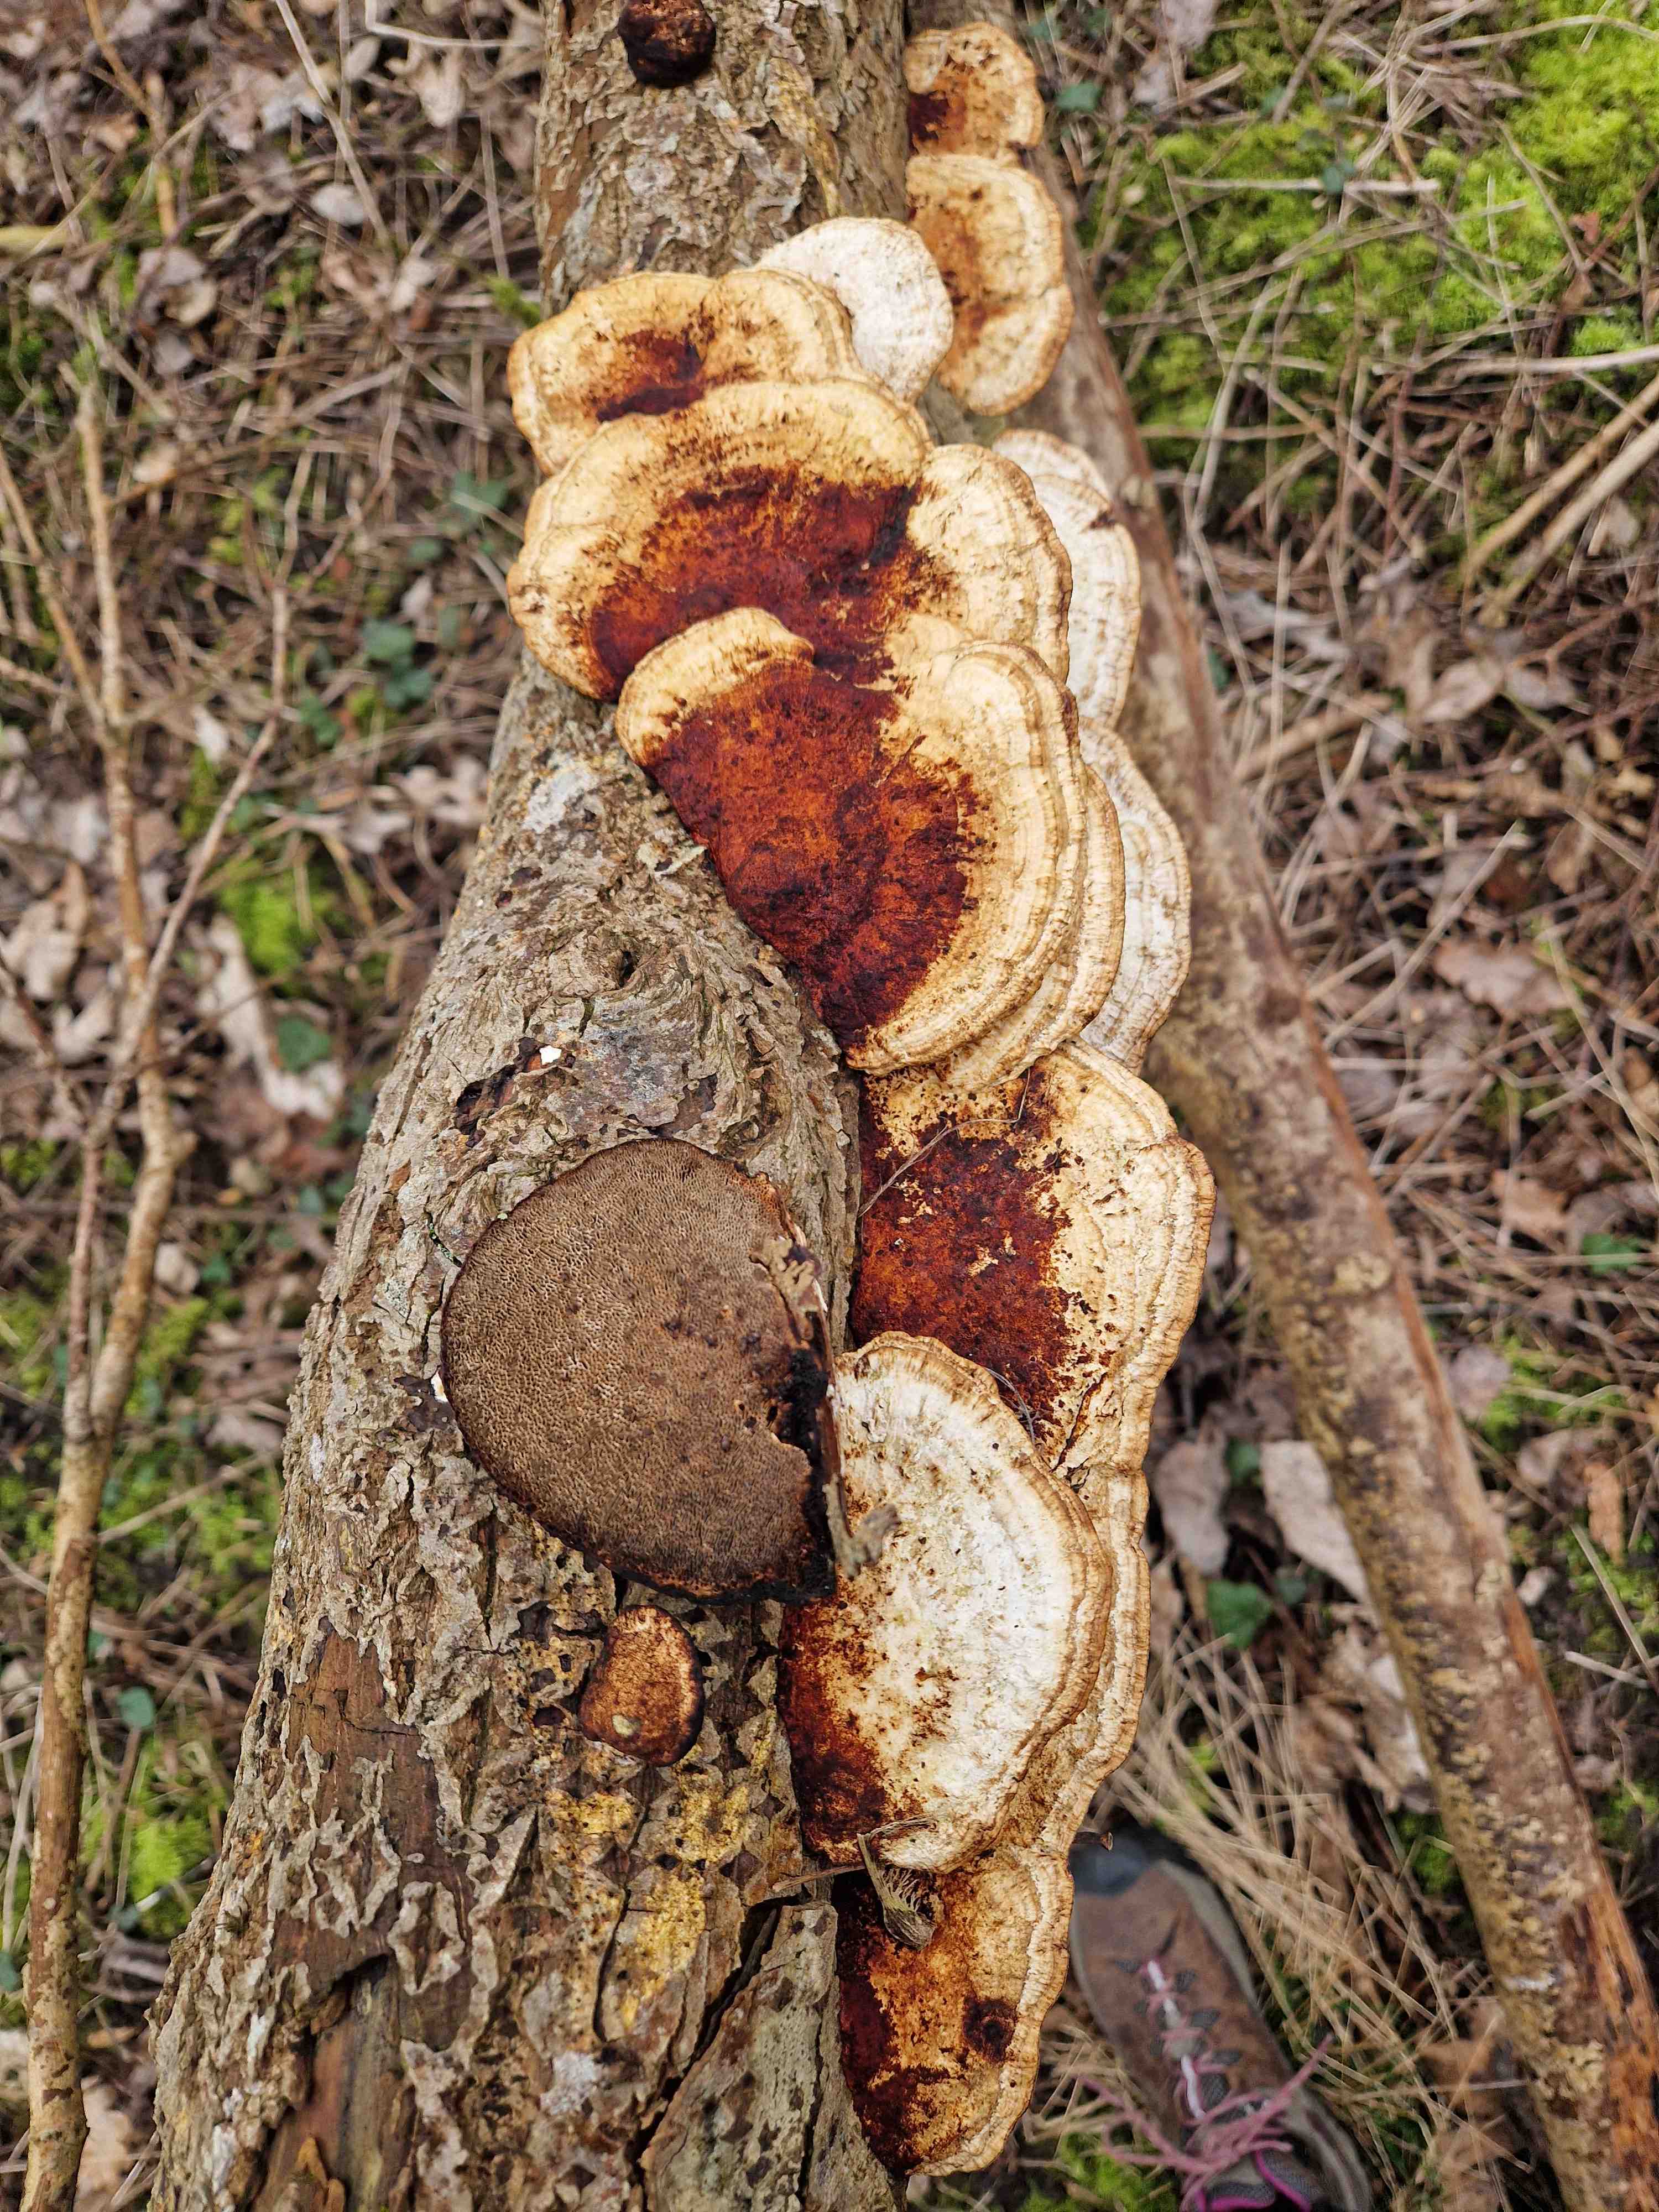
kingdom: Fungi
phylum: Basidiomycota
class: Agaricomycetes
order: Polyporales
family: Polyporaceae
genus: Daedaleopsis
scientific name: Daedaleopsis confragosa
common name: rødmende læderporesvamp
